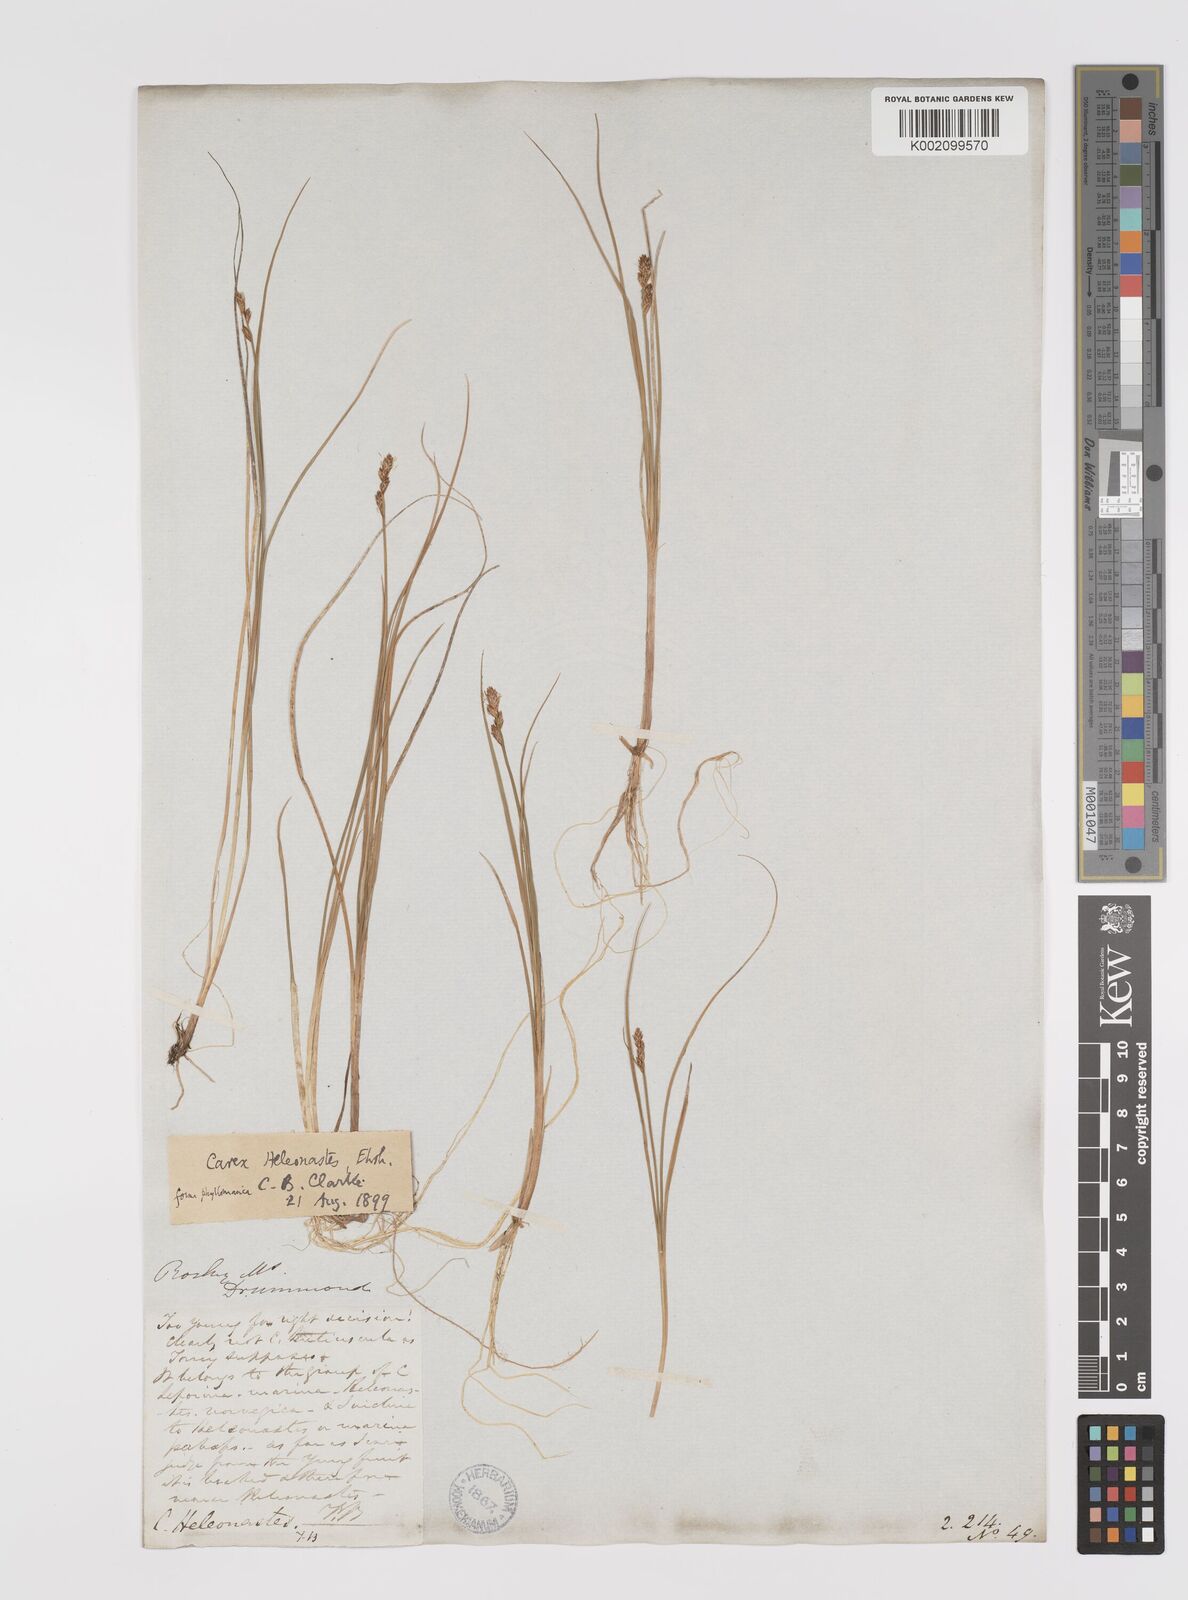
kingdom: Plantae
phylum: Tracheophyta
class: Liliopsida
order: Poales
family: Cyperaceae
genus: Carex
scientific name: Carex heleonastes
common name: Hudson bay sedge
